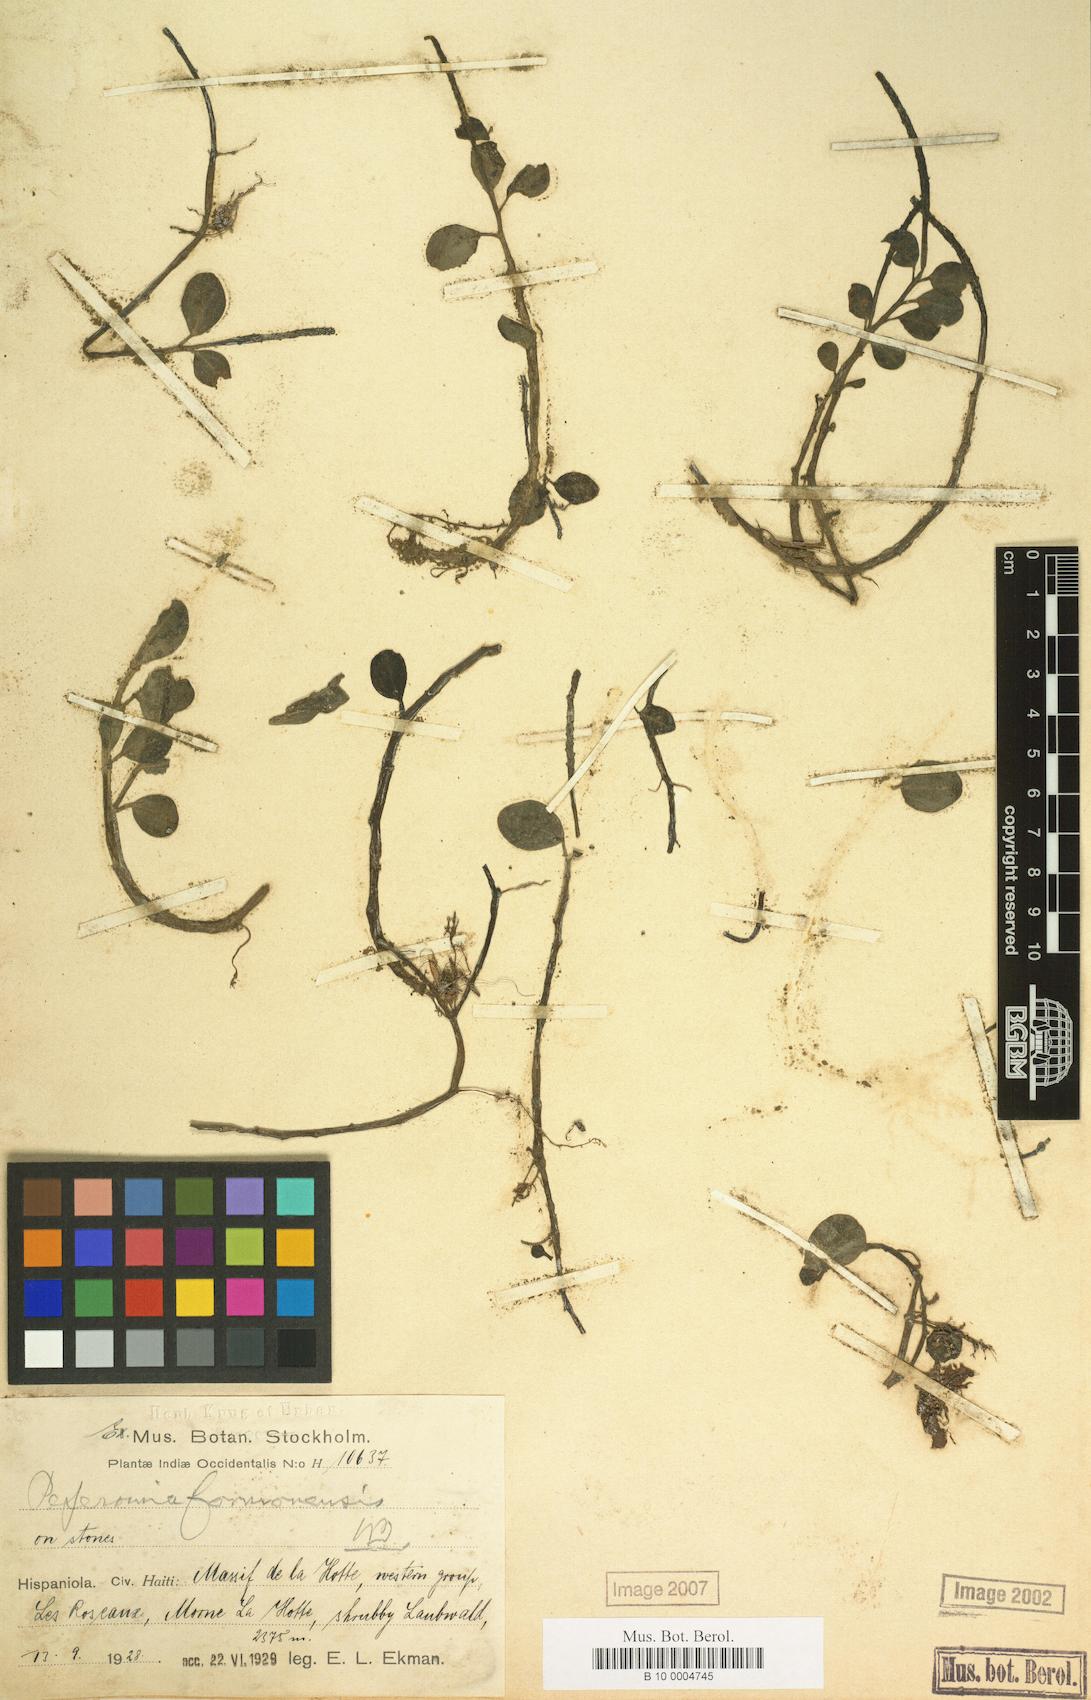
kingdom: Plantae
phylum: Tracheophyta
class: Magnoliopsida
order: Piperales
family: Piperaceae
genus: Peperomia
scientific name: Peperomia obtusifolia
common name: Baby rubberplant
